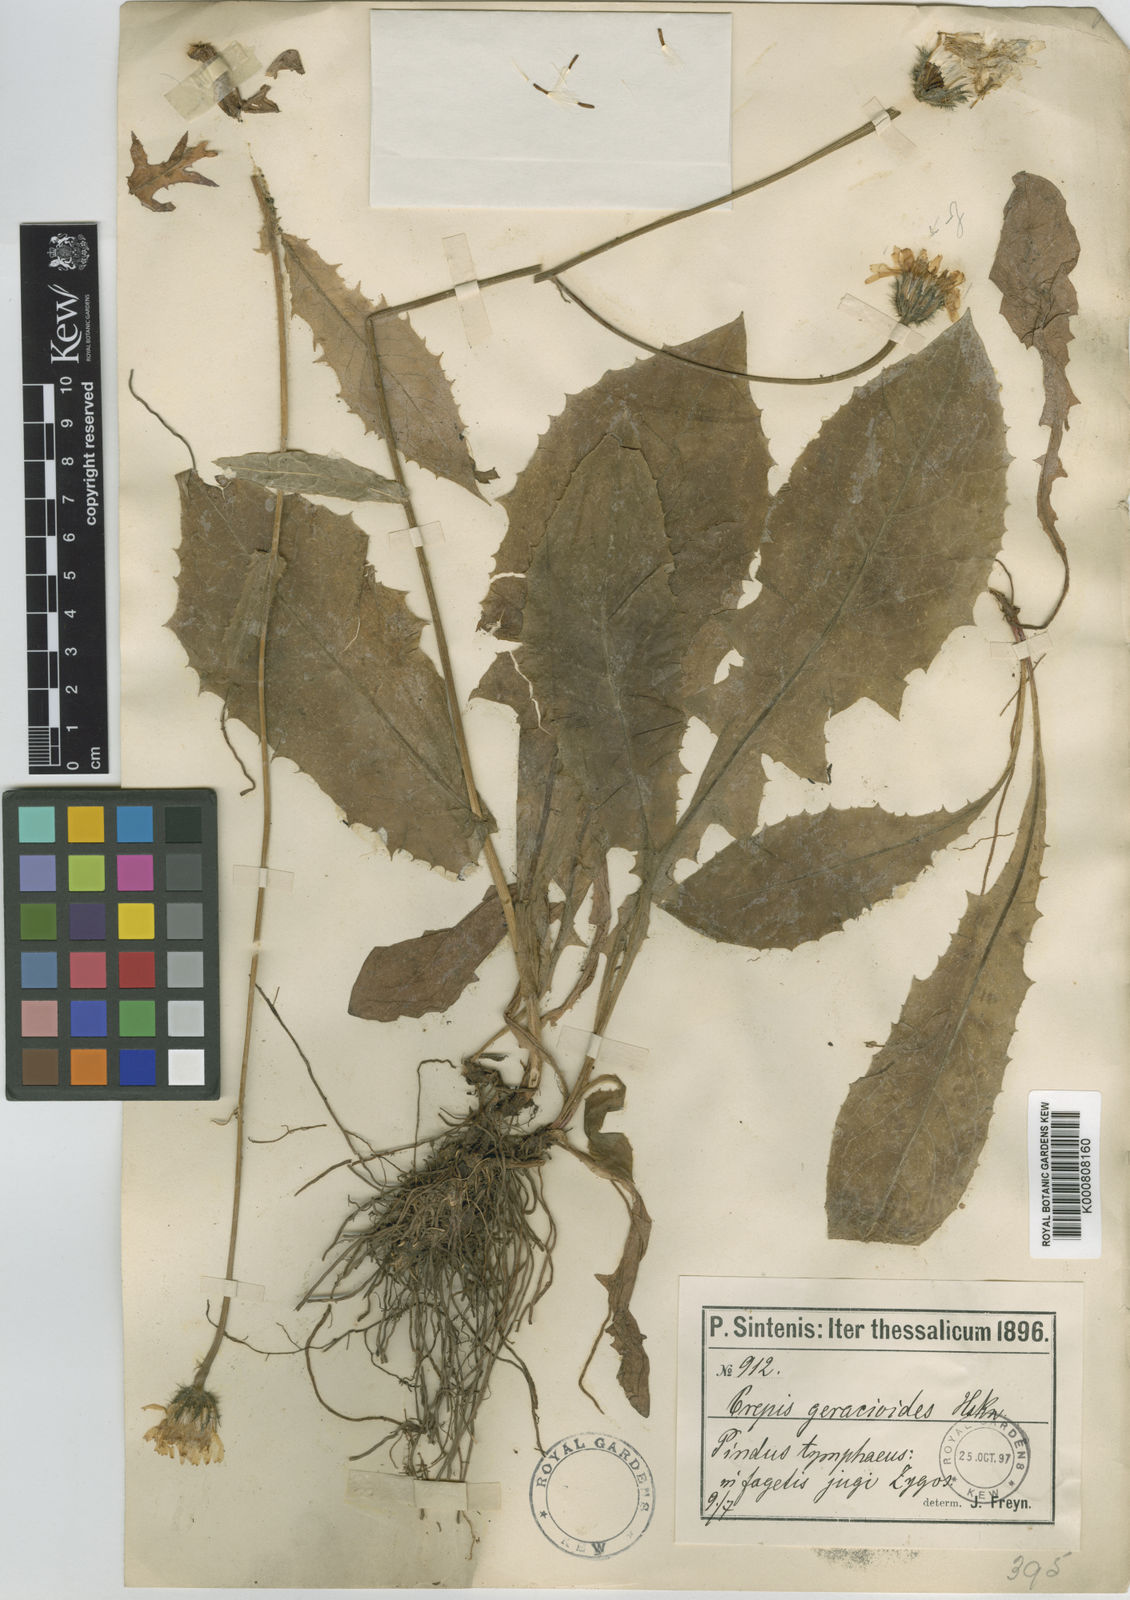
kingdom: Plantae
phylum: Tracheophyta
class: Magnoliopsida
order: Asterales
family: Asteraceae
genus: Crepis
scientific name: Crepis viscidula
